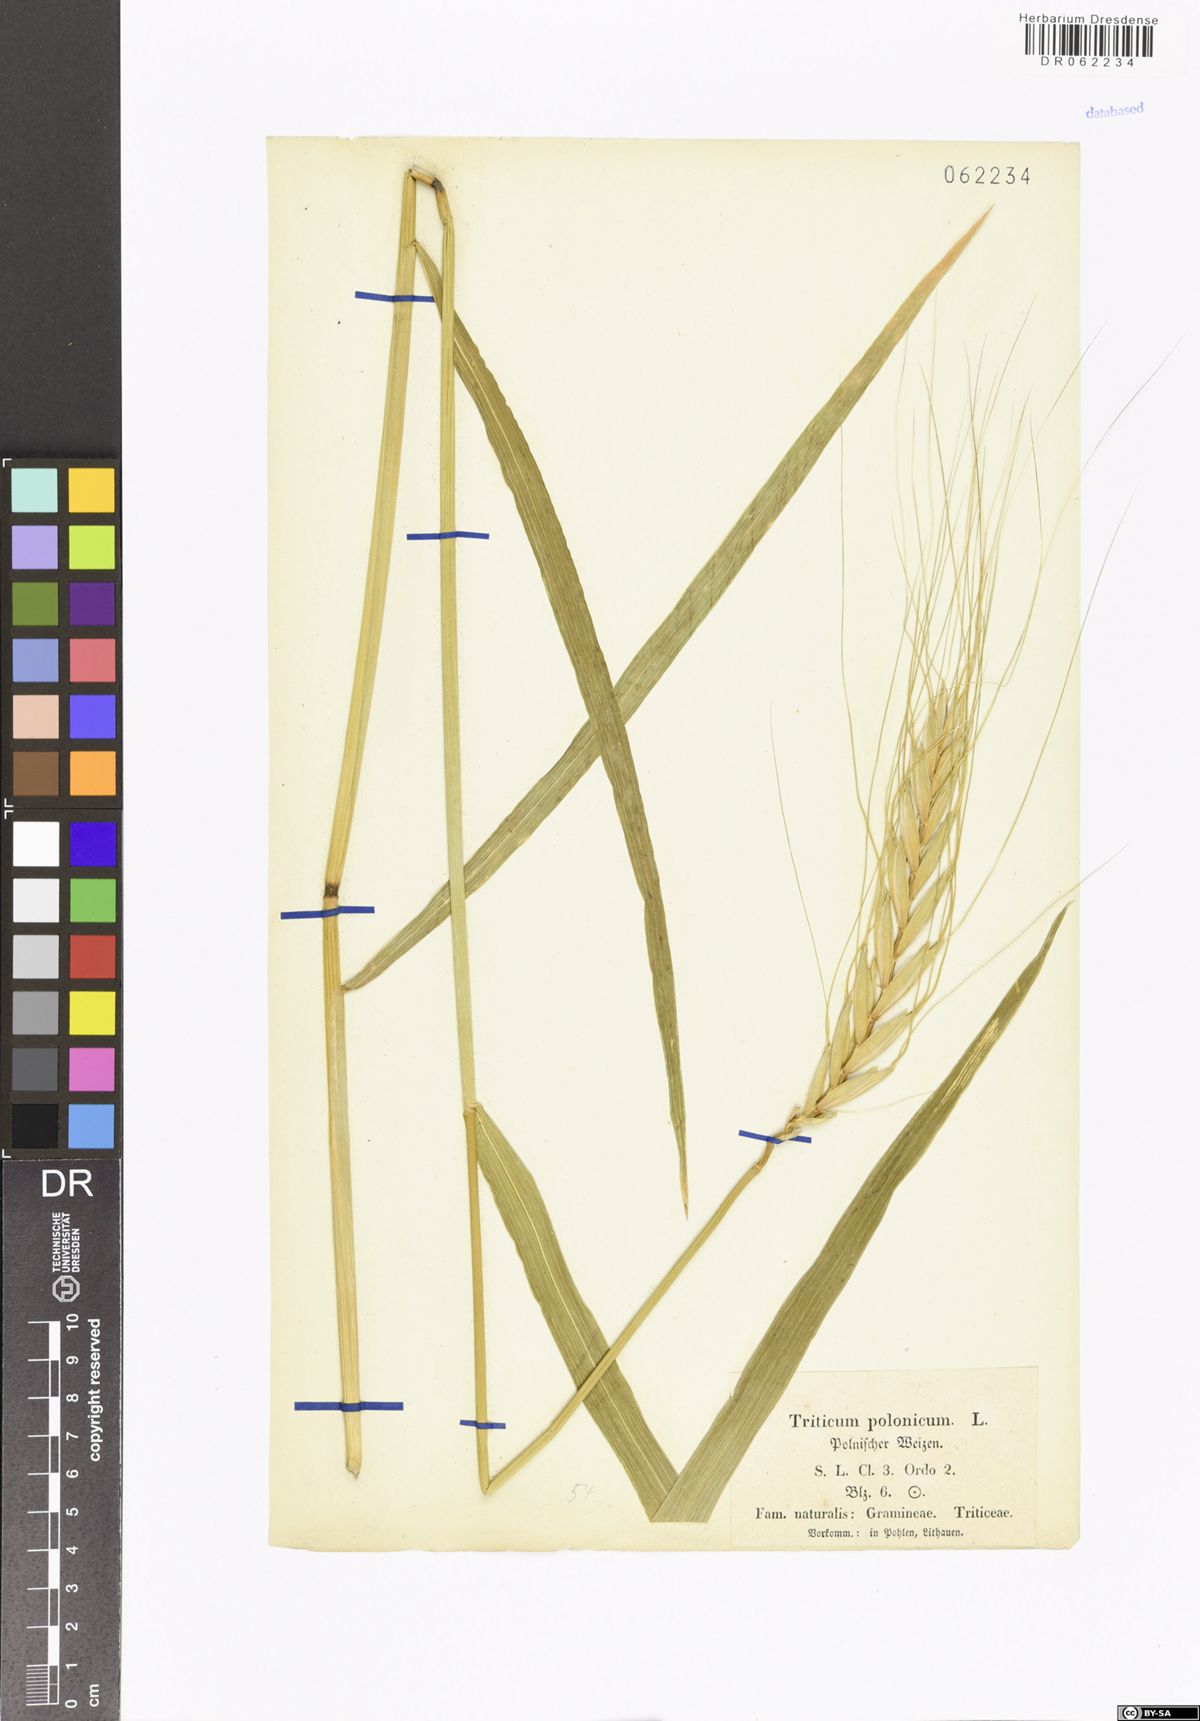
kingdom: Plantae
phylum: Tracheophyta
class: Liliopsida
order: Poales
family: Poaceae
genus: Triticum
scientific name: Triticum turgidum
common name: Rivet wheat
